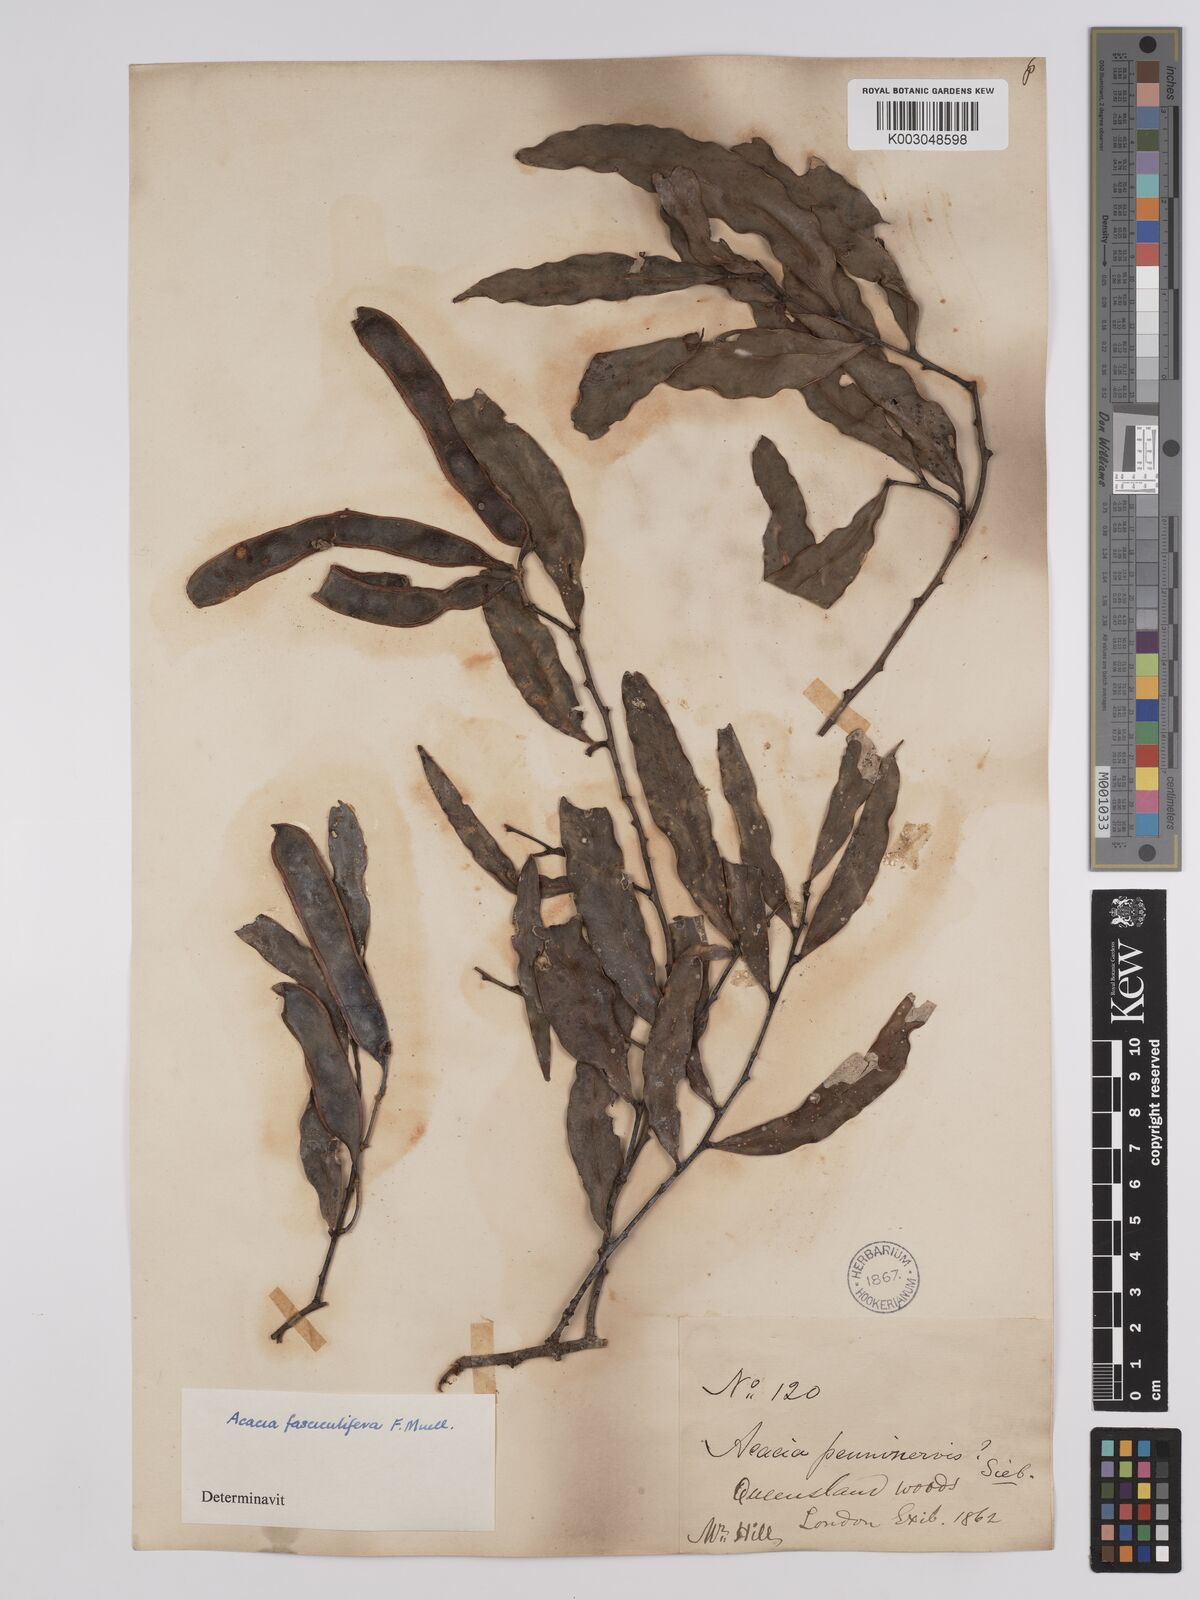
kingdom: Plantae
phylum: Tracheophyta
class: Magnoliopsida
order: Fabales
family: Fabaceae
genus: Acacia
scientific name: Acacia fasciculifera
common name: Scalybark
